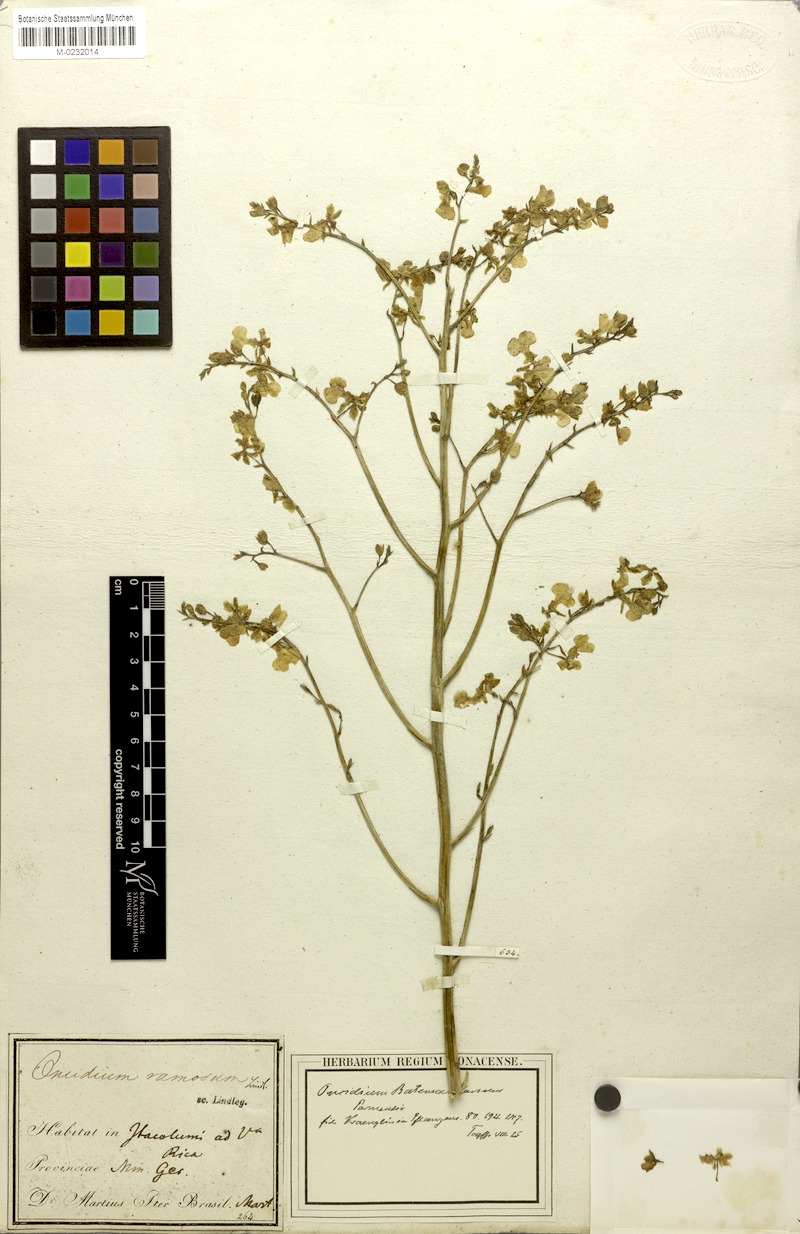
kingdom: Plantae
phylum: Tracheophyta
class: Liliopsida
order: Asparagales
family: Orchidaceae
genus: Gomesa
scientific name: Gomesa ramosa
